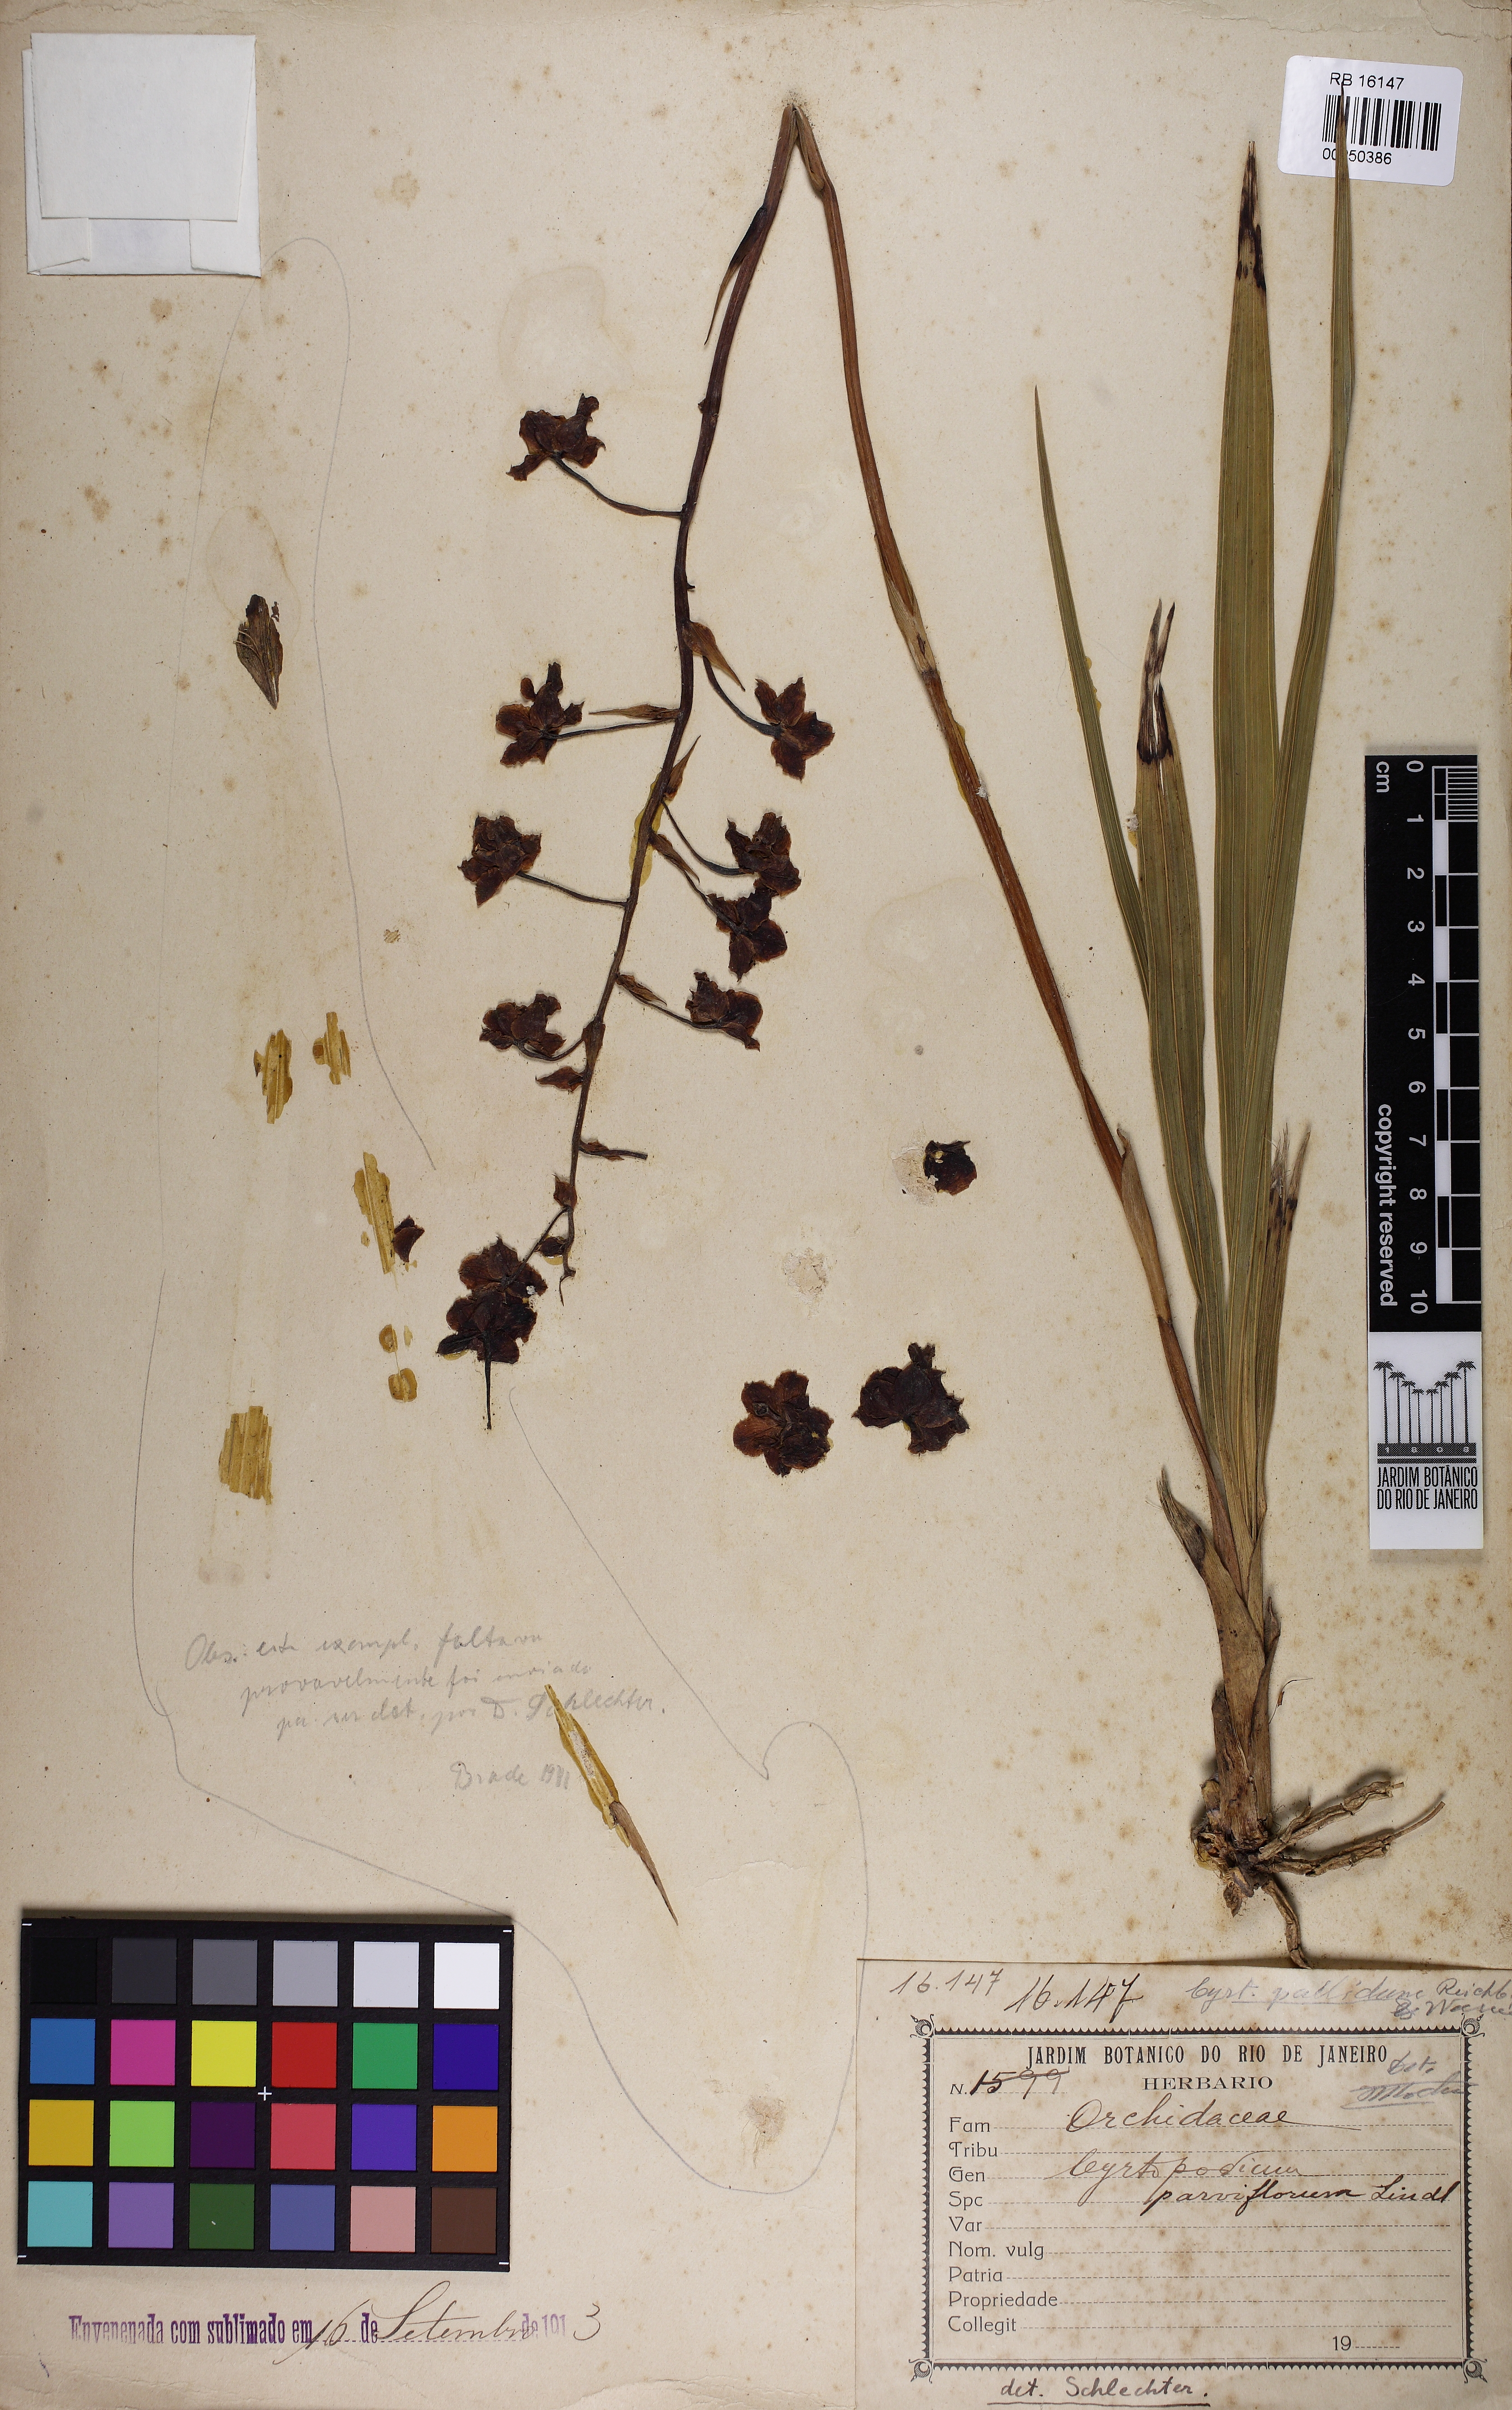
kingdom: Plantae
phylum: Tracheophyta
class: Liliopsida
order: Asparagales
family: Orchidaceae
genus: Cyrtopodium
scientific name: Cyrtopodium parviflorum
